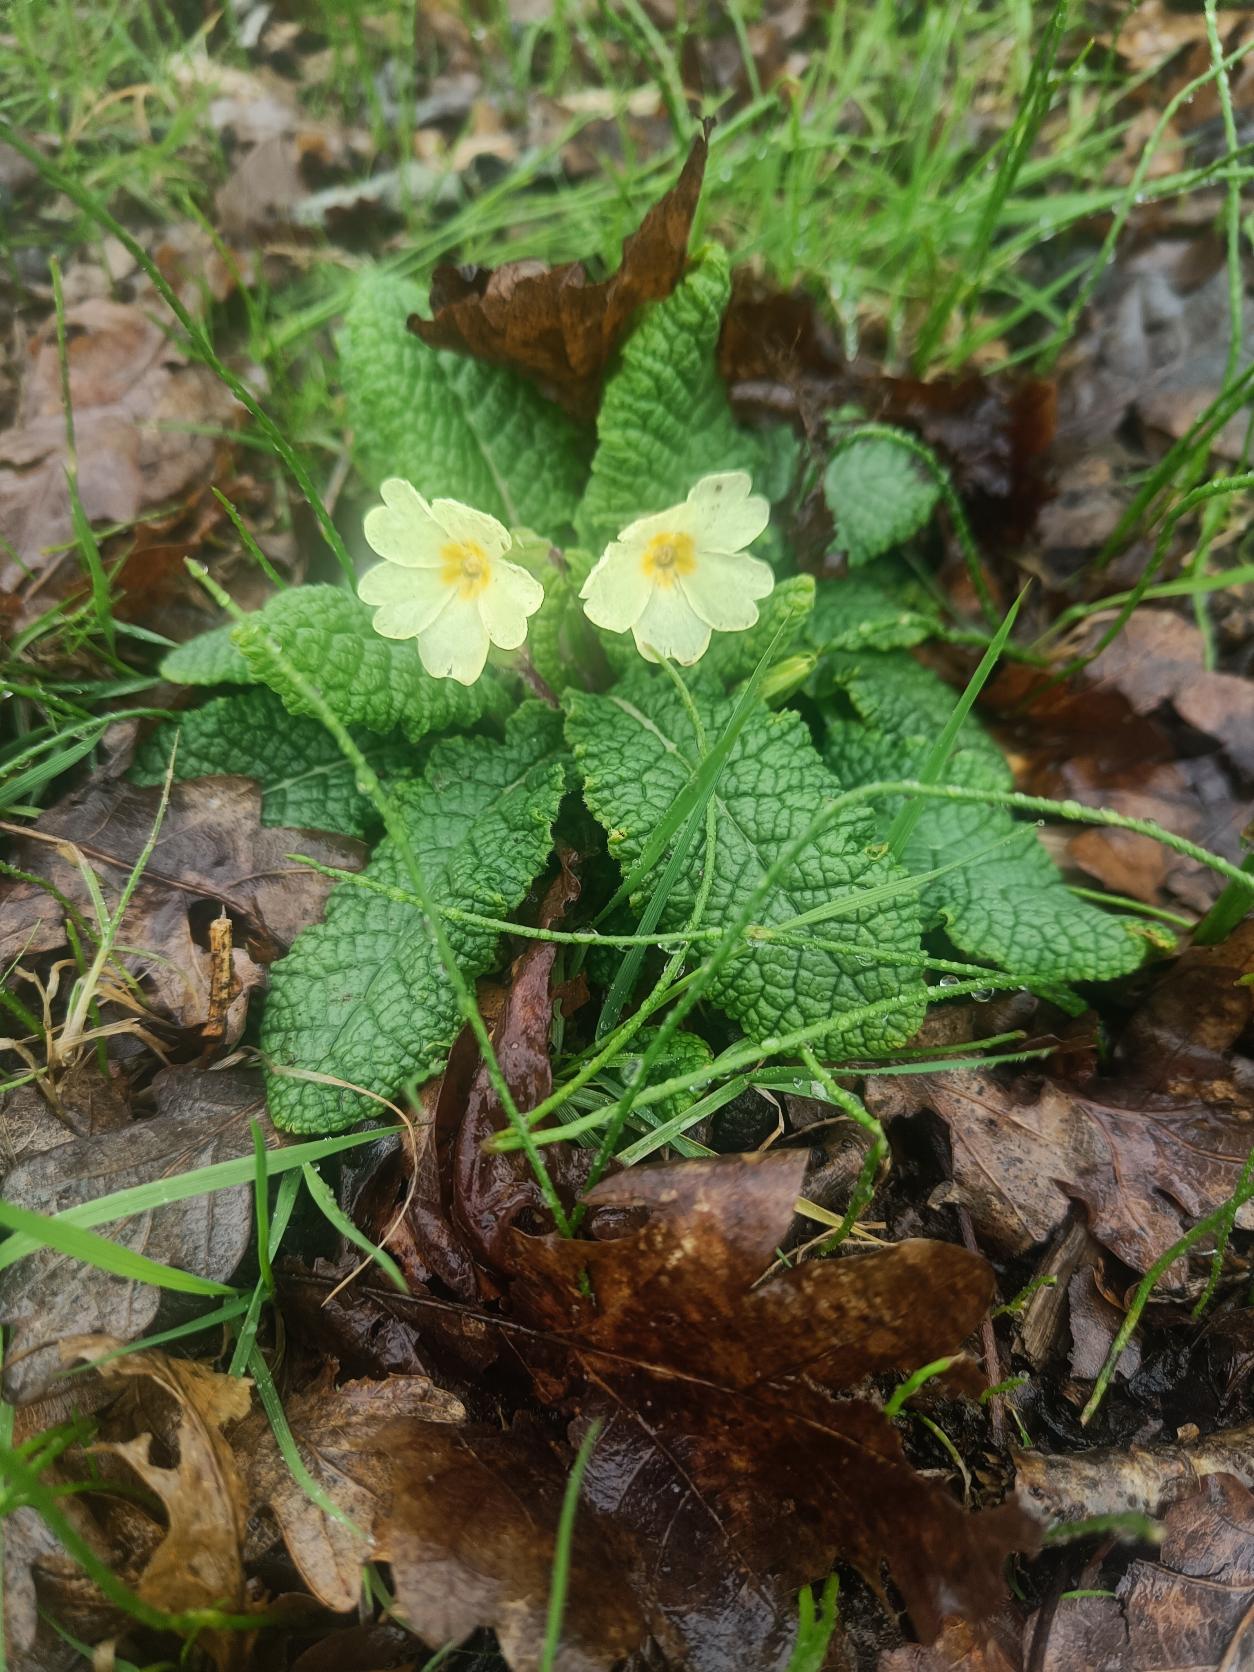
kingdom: Plantae
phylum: Tracheophyta
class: Magnoliopsida
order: Ericales
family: Primulaceae
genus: Primula
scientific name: Primula vulgaris
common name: Storblomstret kodriver
